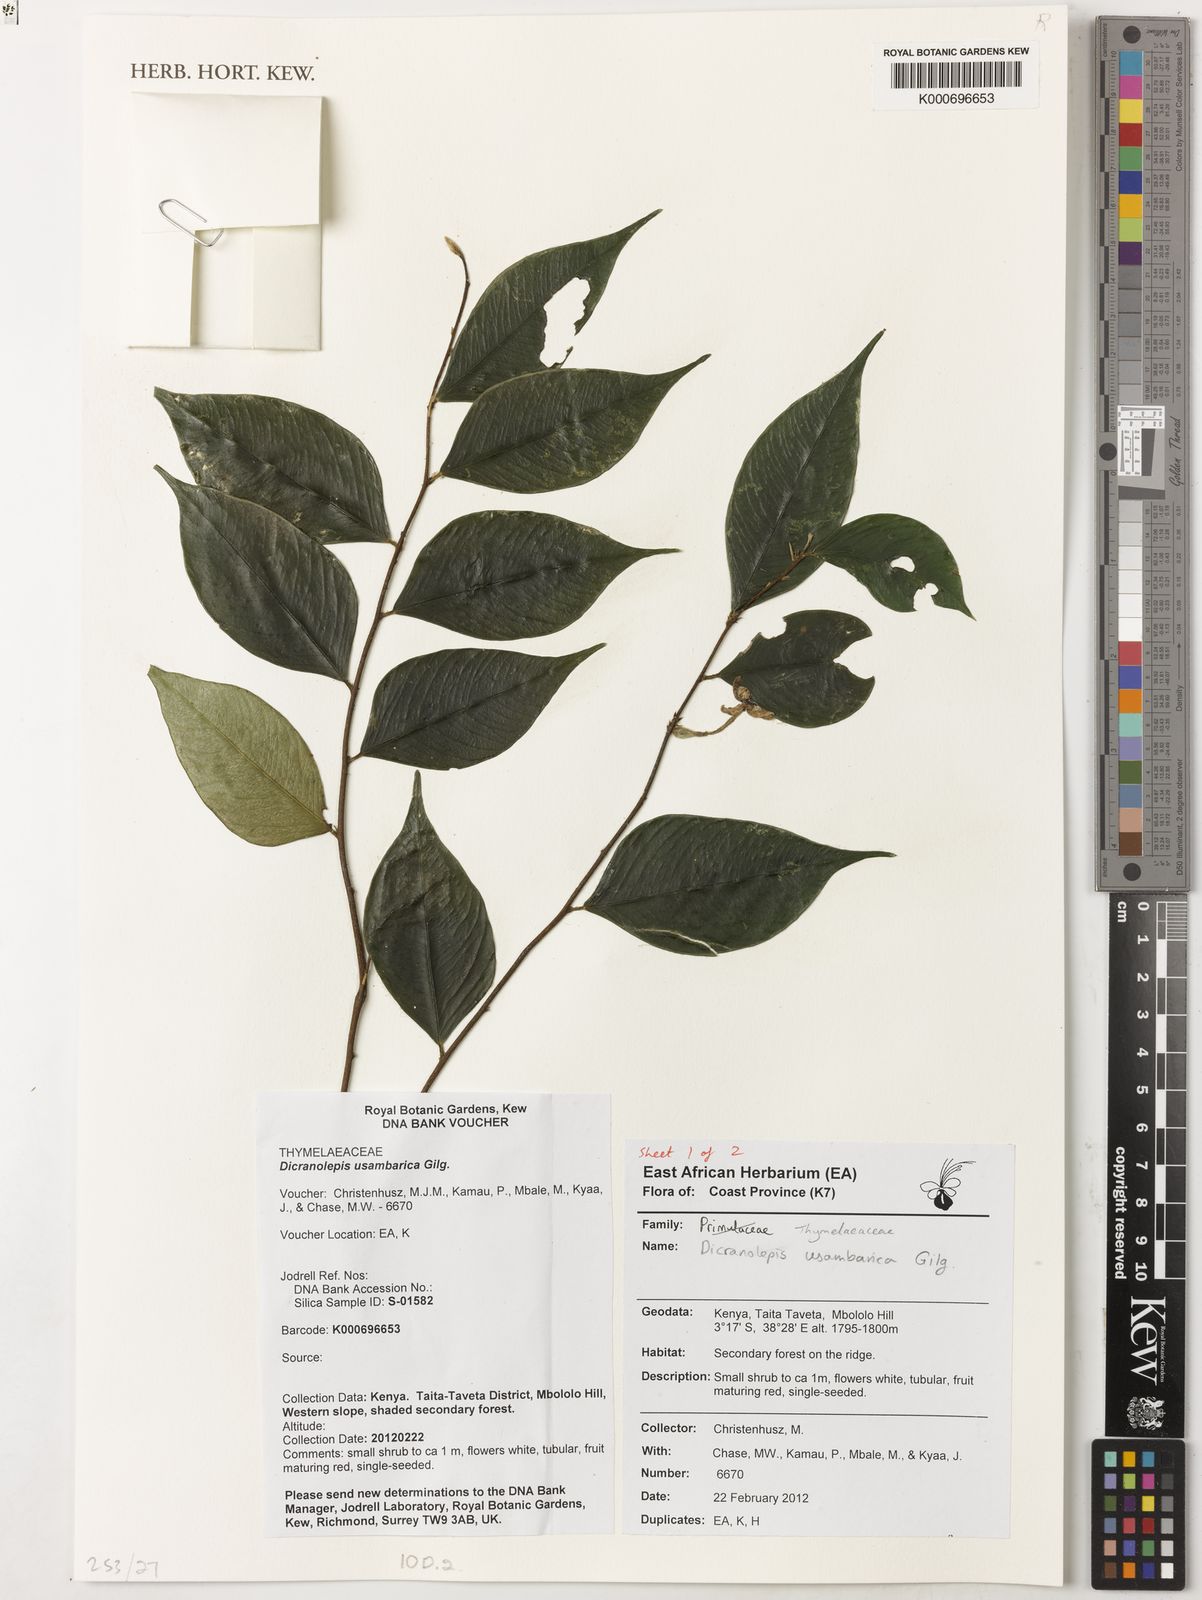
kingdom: Plantae
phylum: Tracheophyta
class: Magnoliopsida
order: Malvales
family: Thymelaeaceae
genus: Dicranolepis
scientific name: Dicranolepis usambarica
